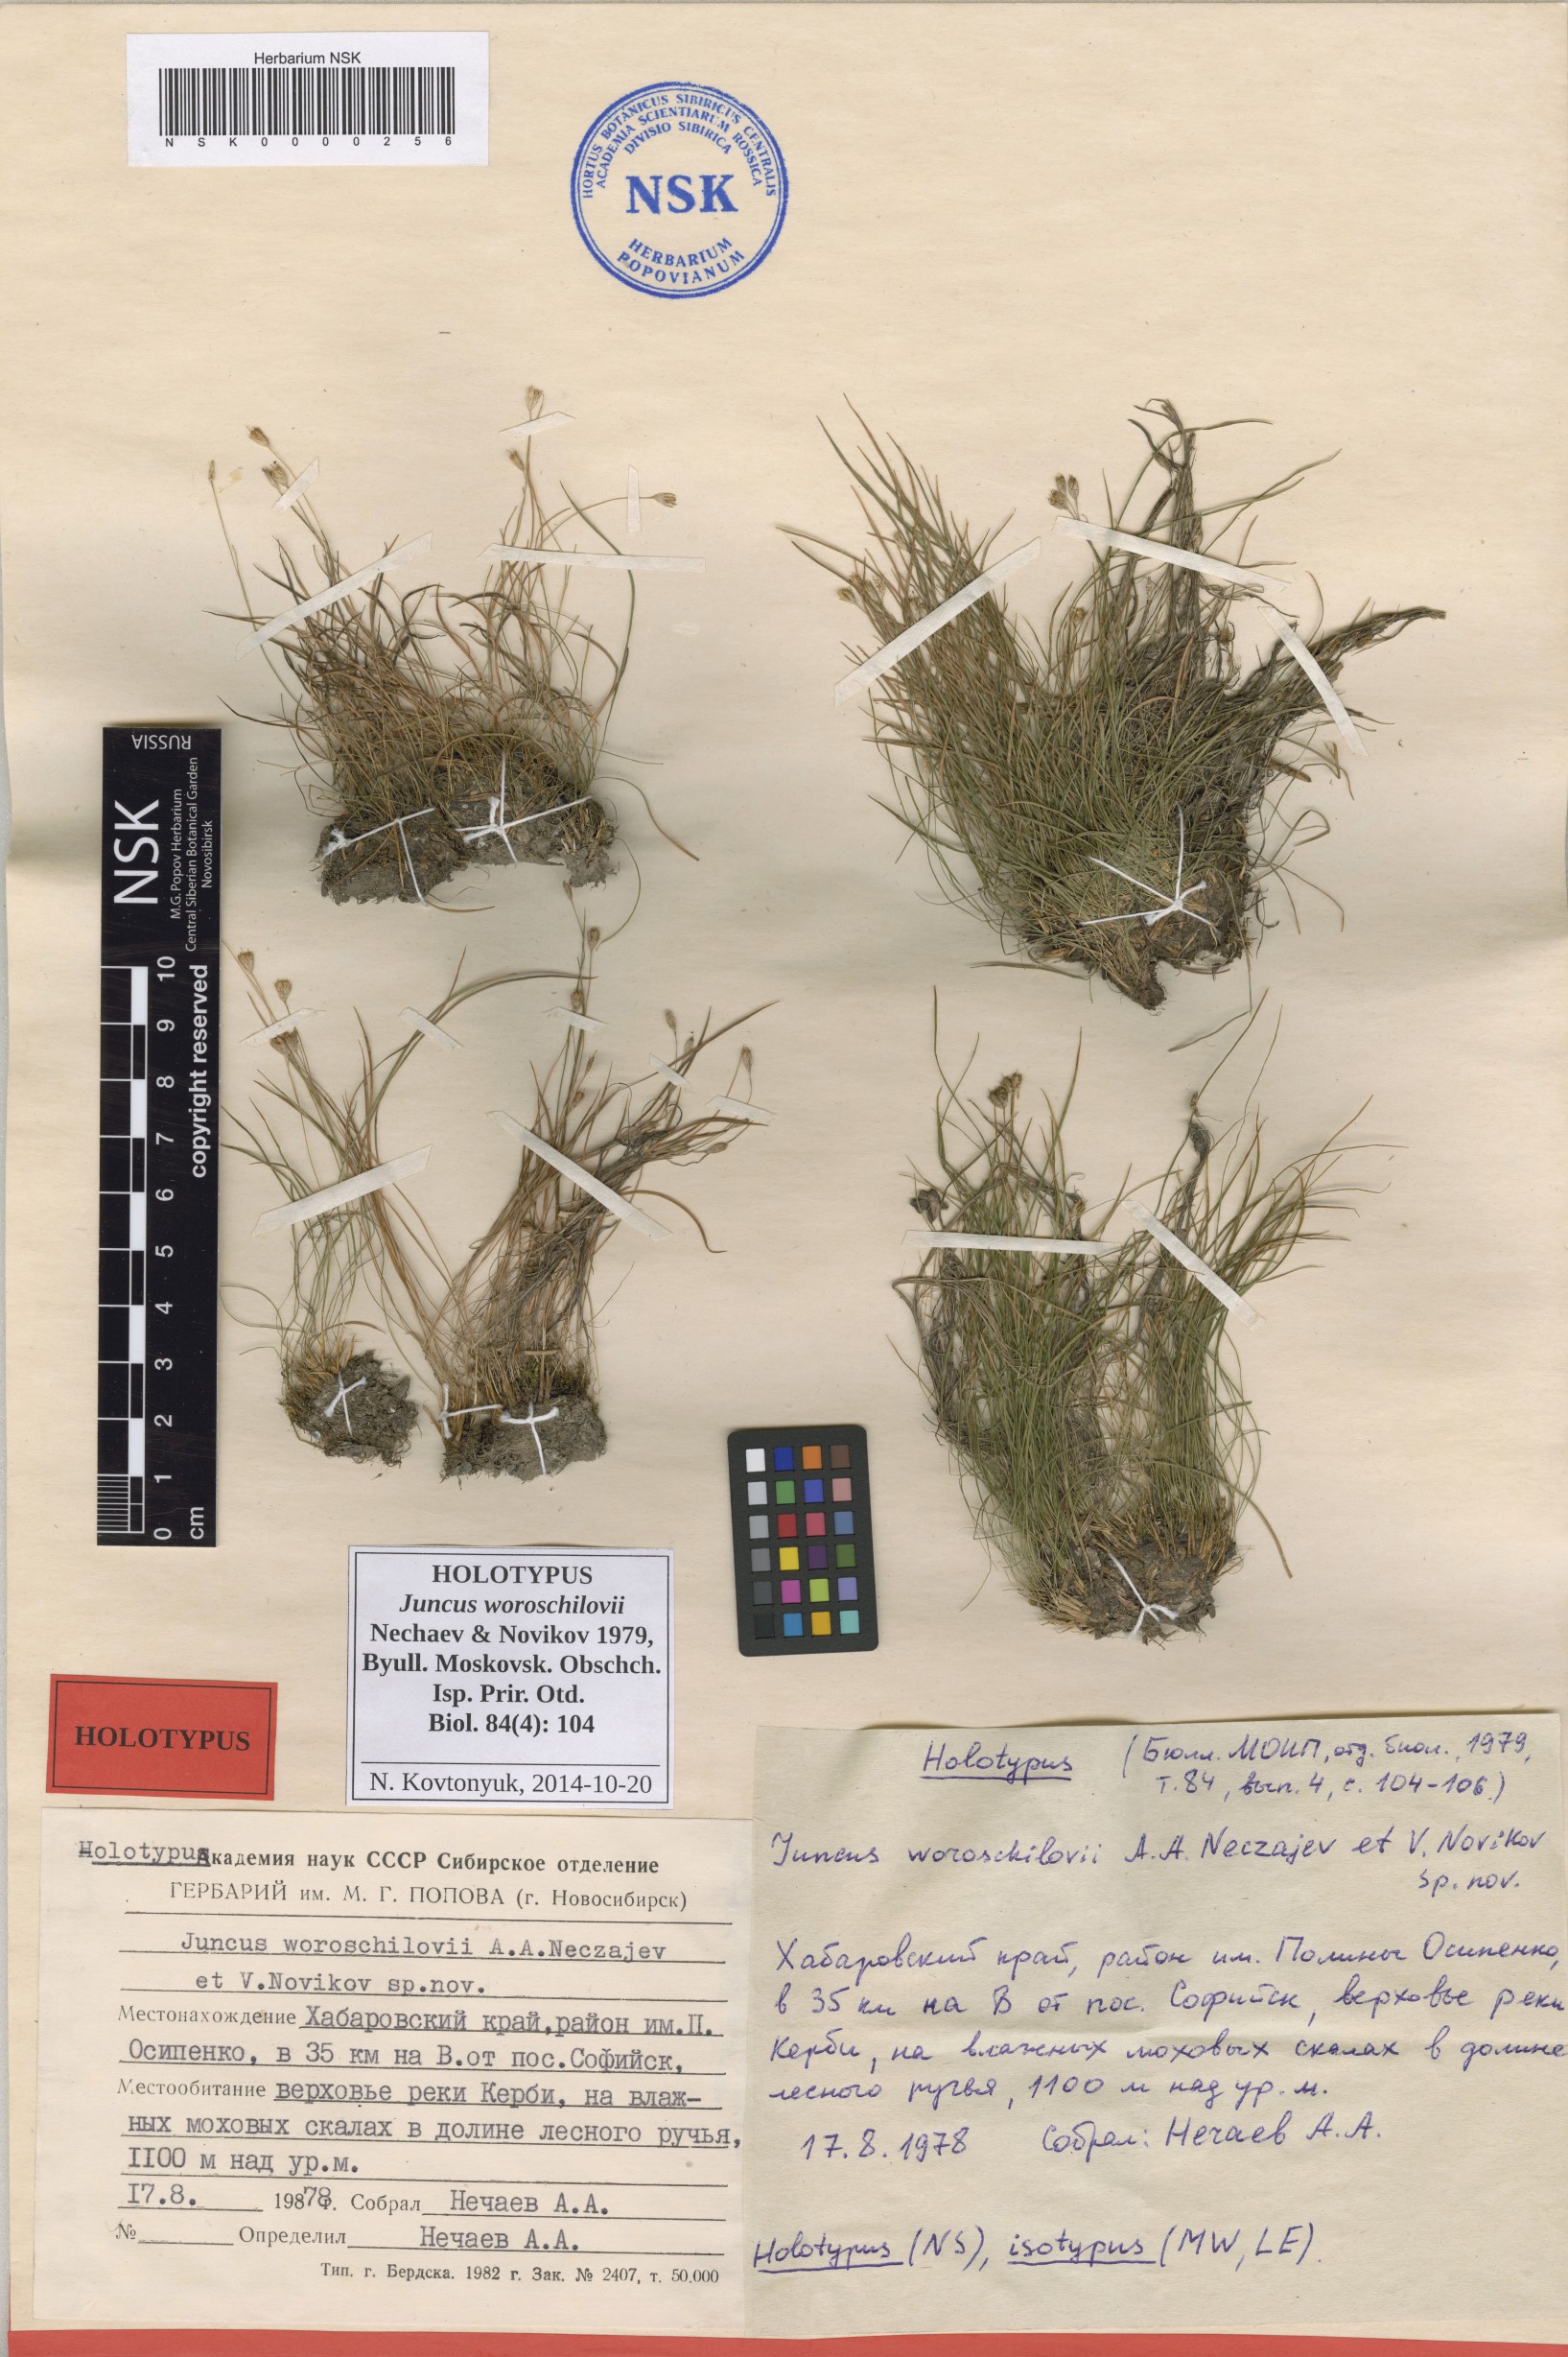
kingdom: Plantae
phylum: Tracheophyta
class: Liliopsida
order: Poales
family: Juncaceae
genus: Juncus
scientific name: Juncus potaninii
